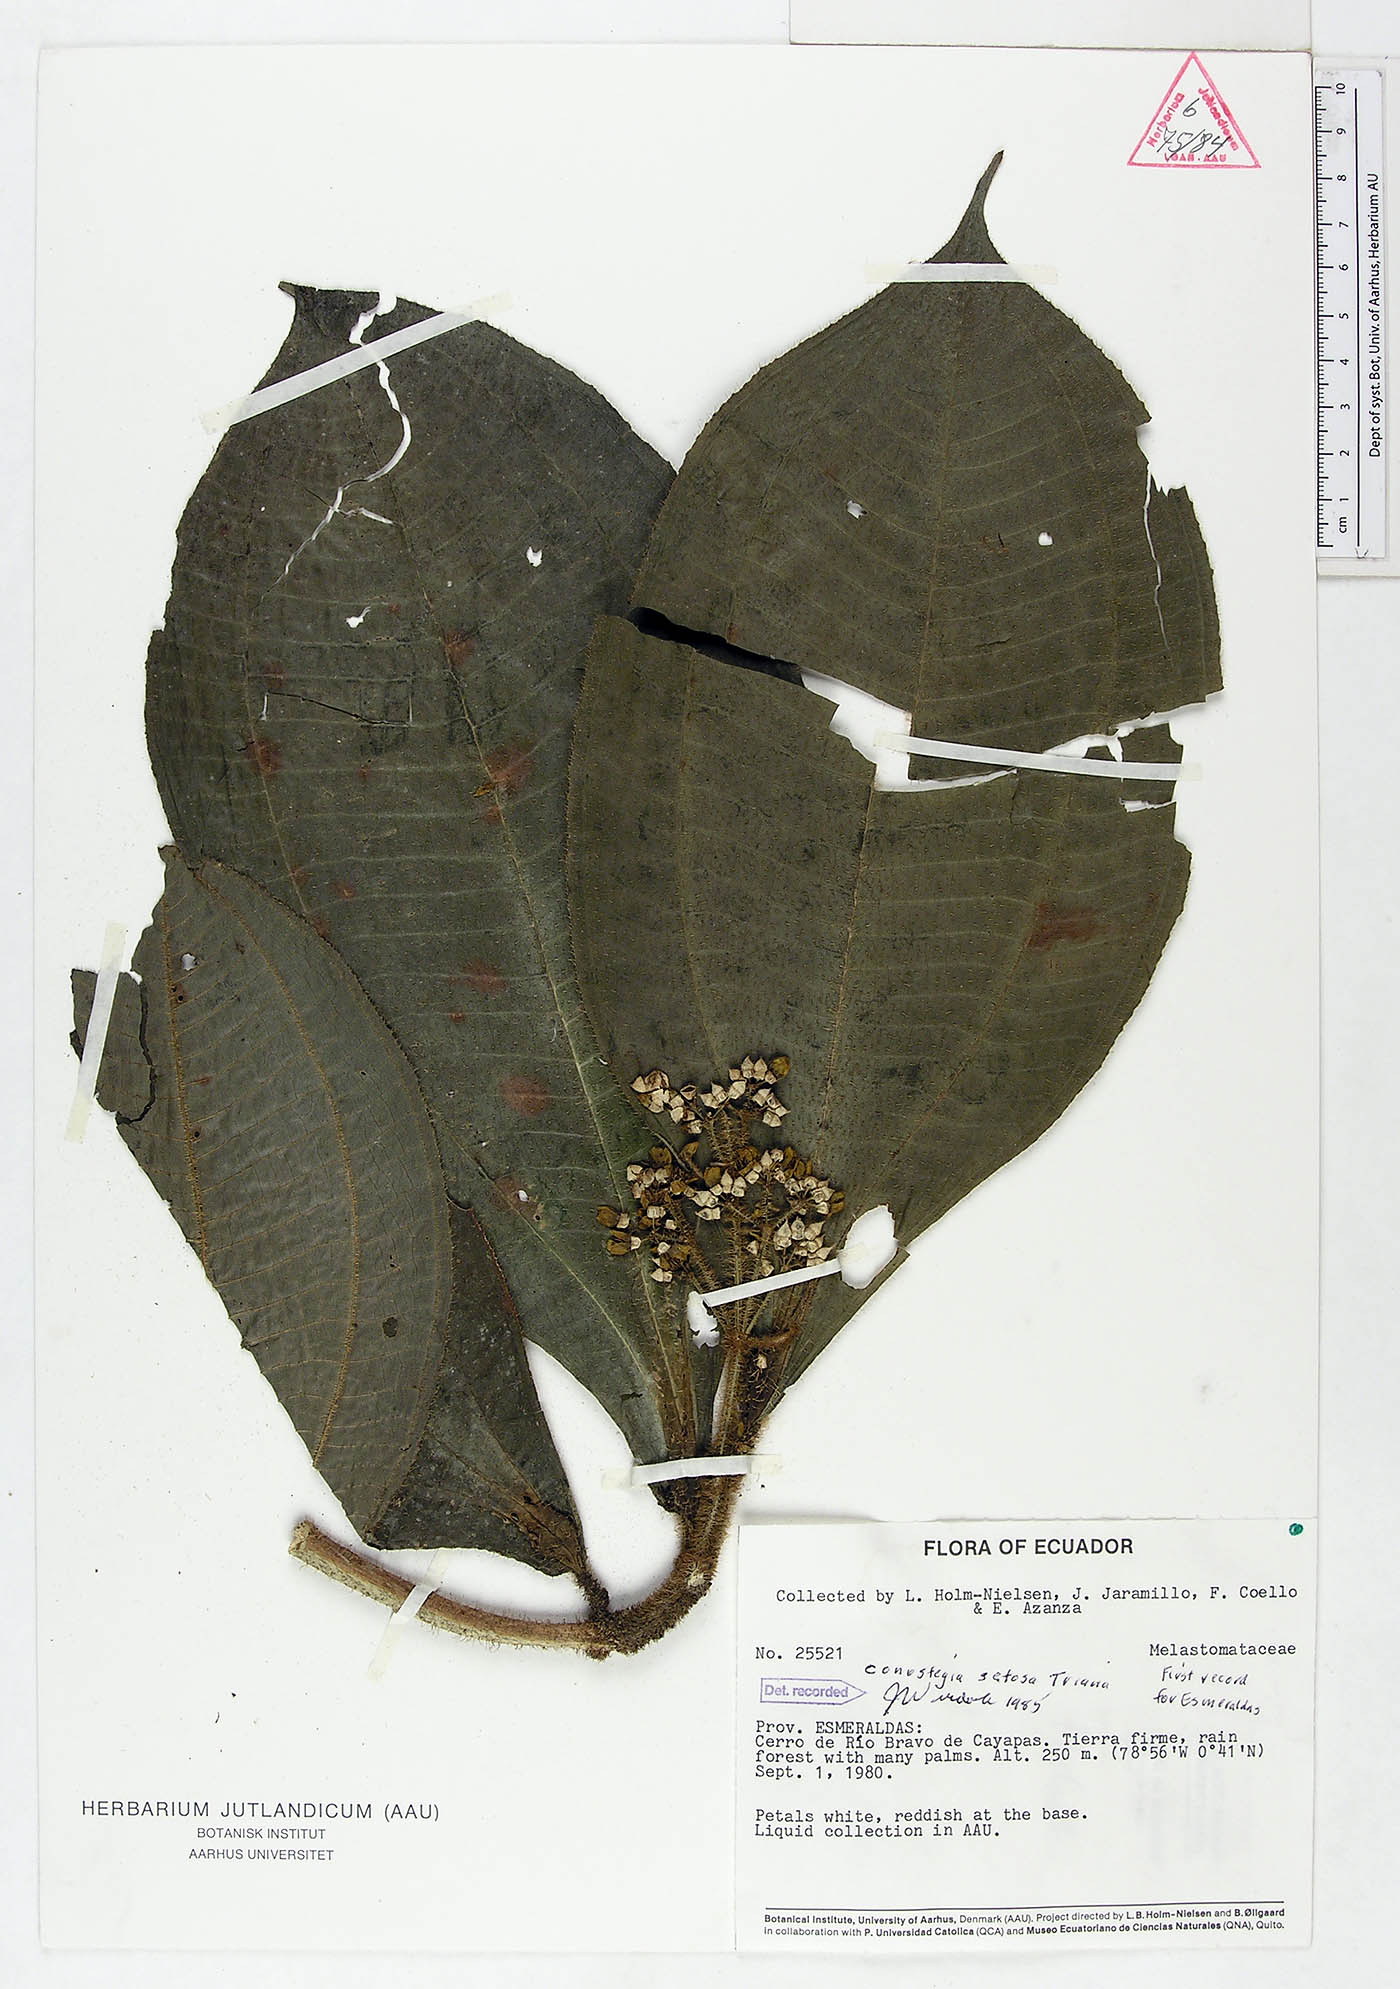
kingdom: Plantae
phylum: Tracheophyta
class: Magnoliopsida
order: Myrtales
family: Melastomataceae
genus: Miconia
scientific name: Miconia conosetosa
